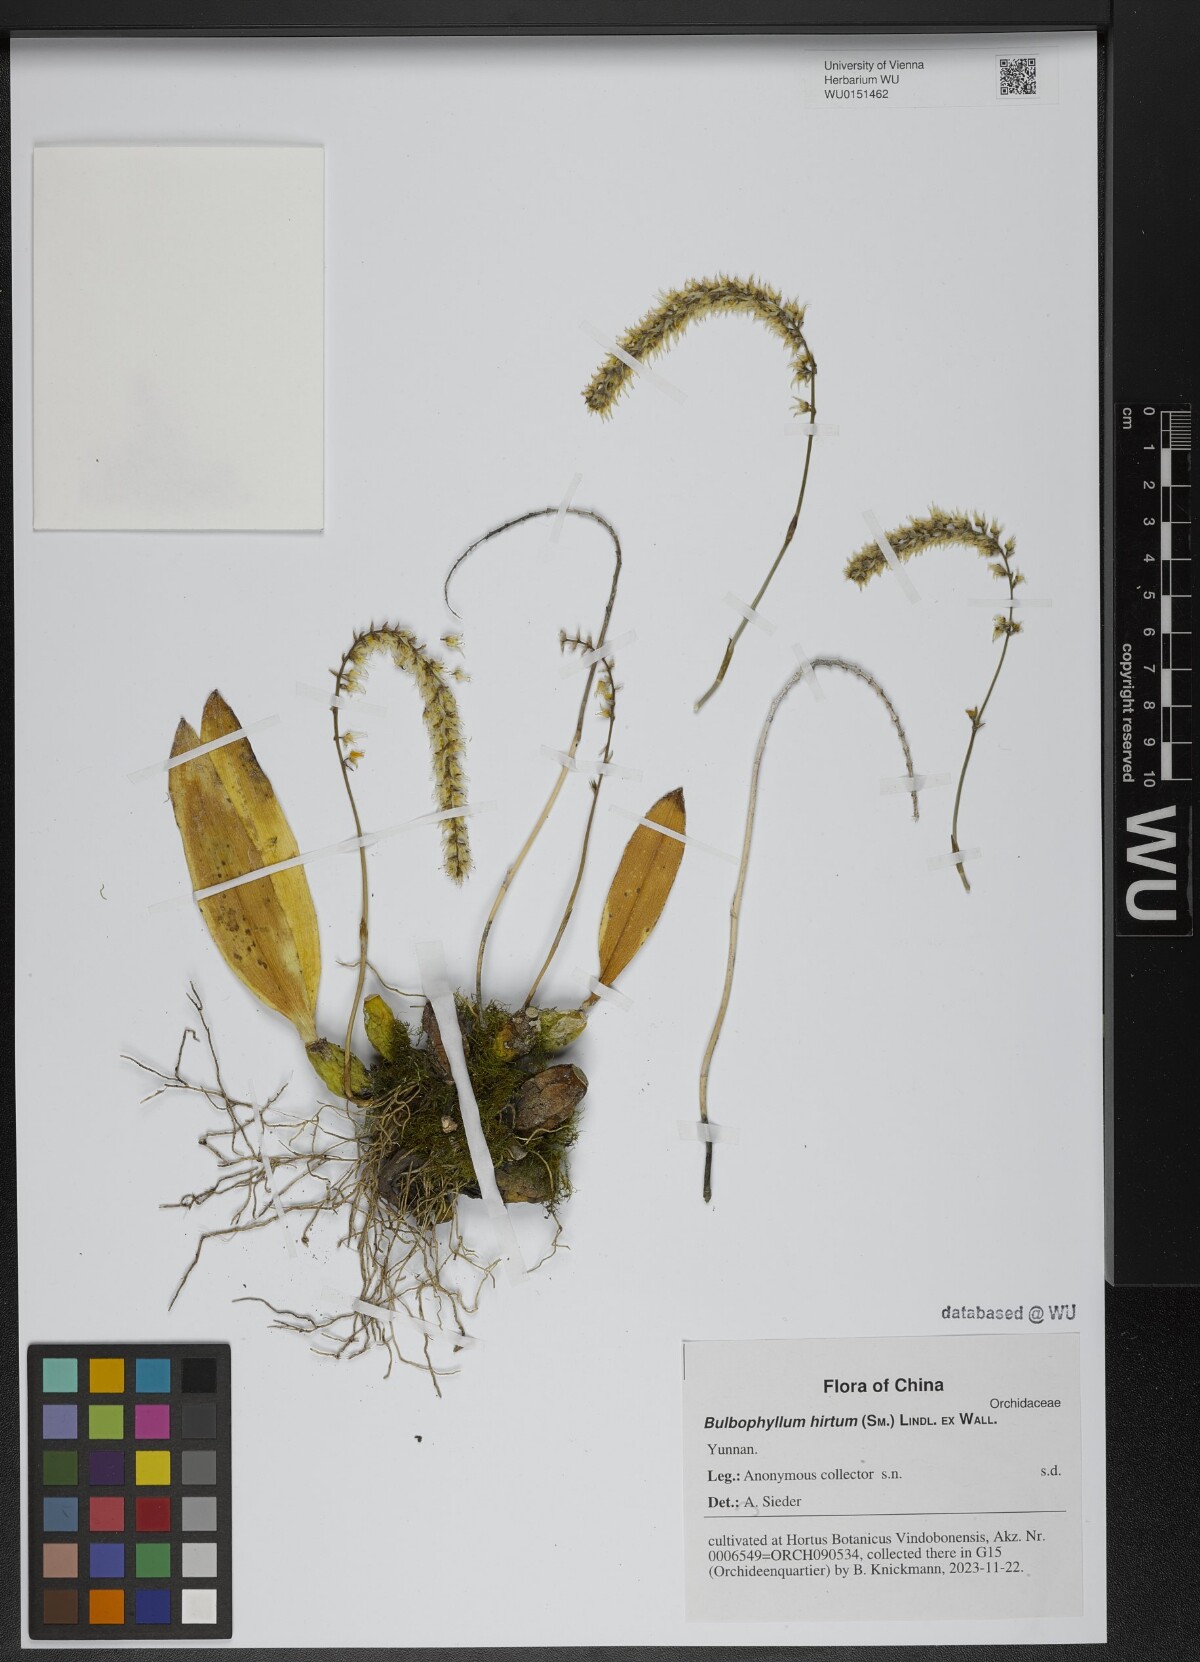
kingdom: Plantae
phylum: Tracheophyta
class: Liliopsida
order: Asparagales
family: Orchidaceae
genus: Bulbophyllum
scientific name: Bulbophyllum hirtum
